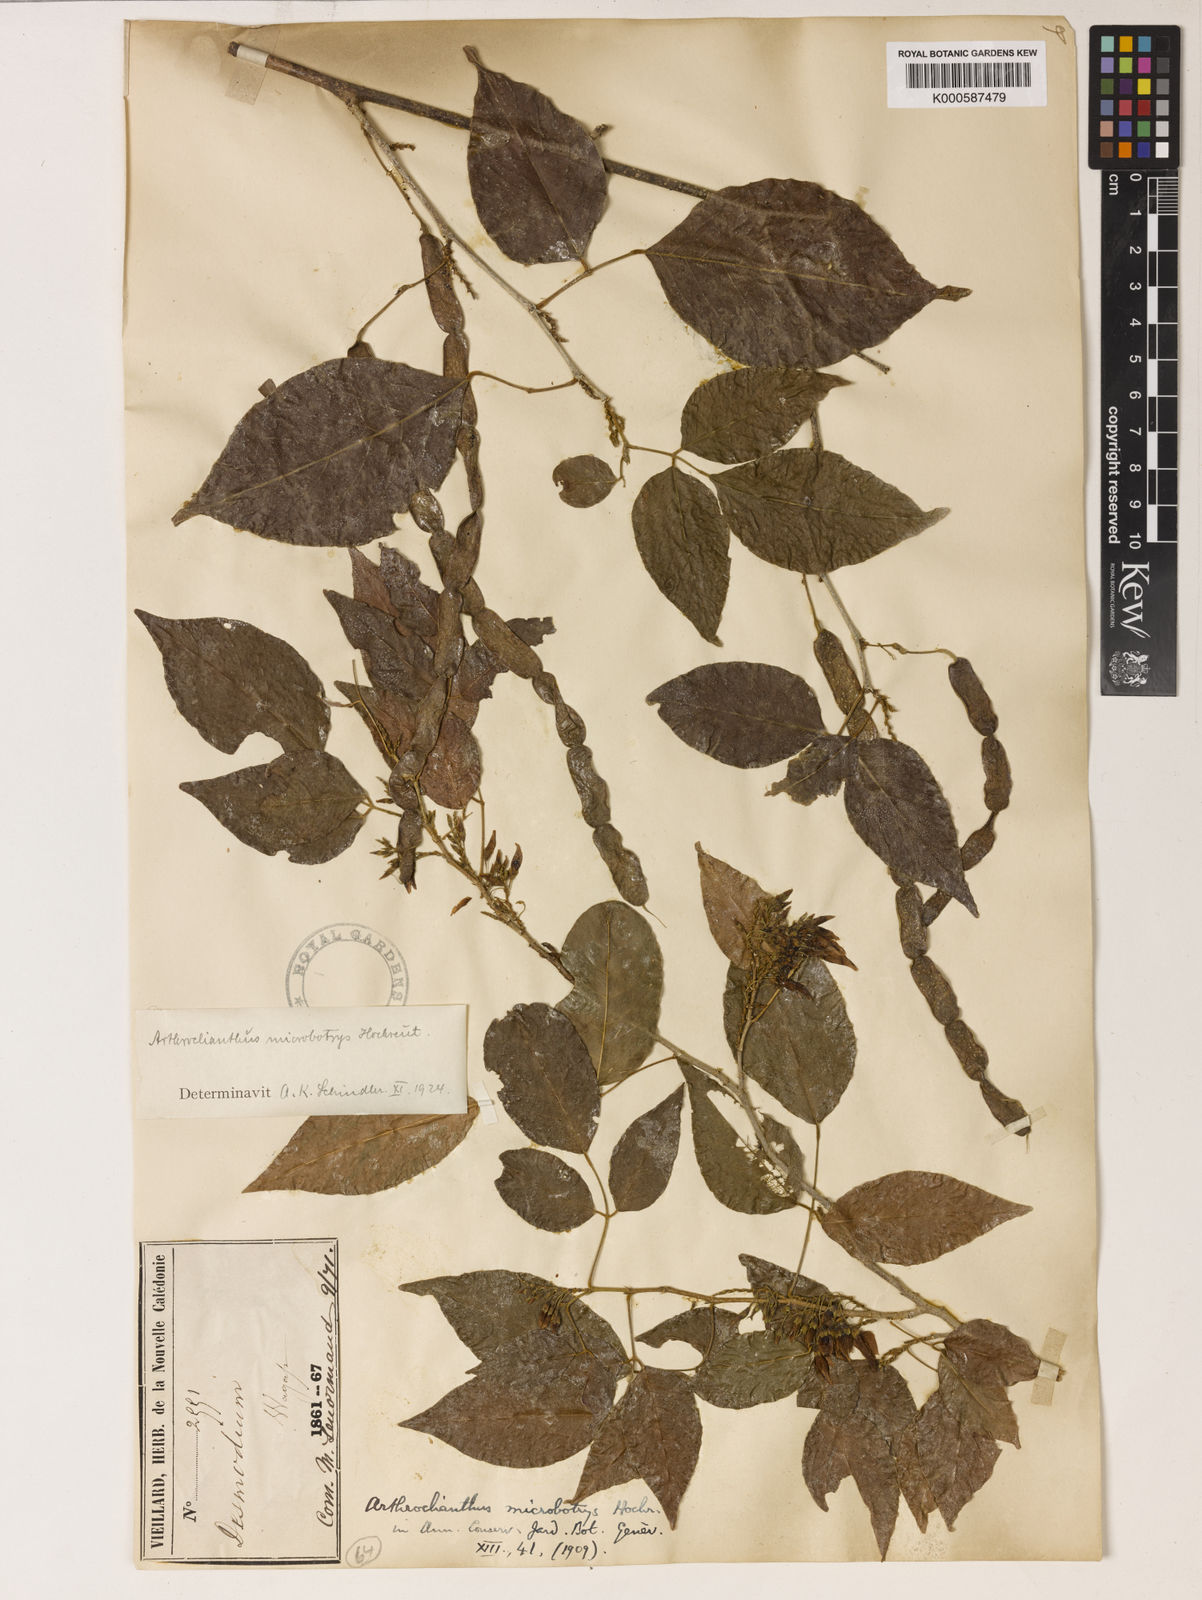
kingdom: Plantae
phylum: Tracheophyta
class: Magnoliopsida
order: Fabales
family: Fabaceae
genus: Arthroclianthus
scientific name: Arthroclianthus microbotrys
